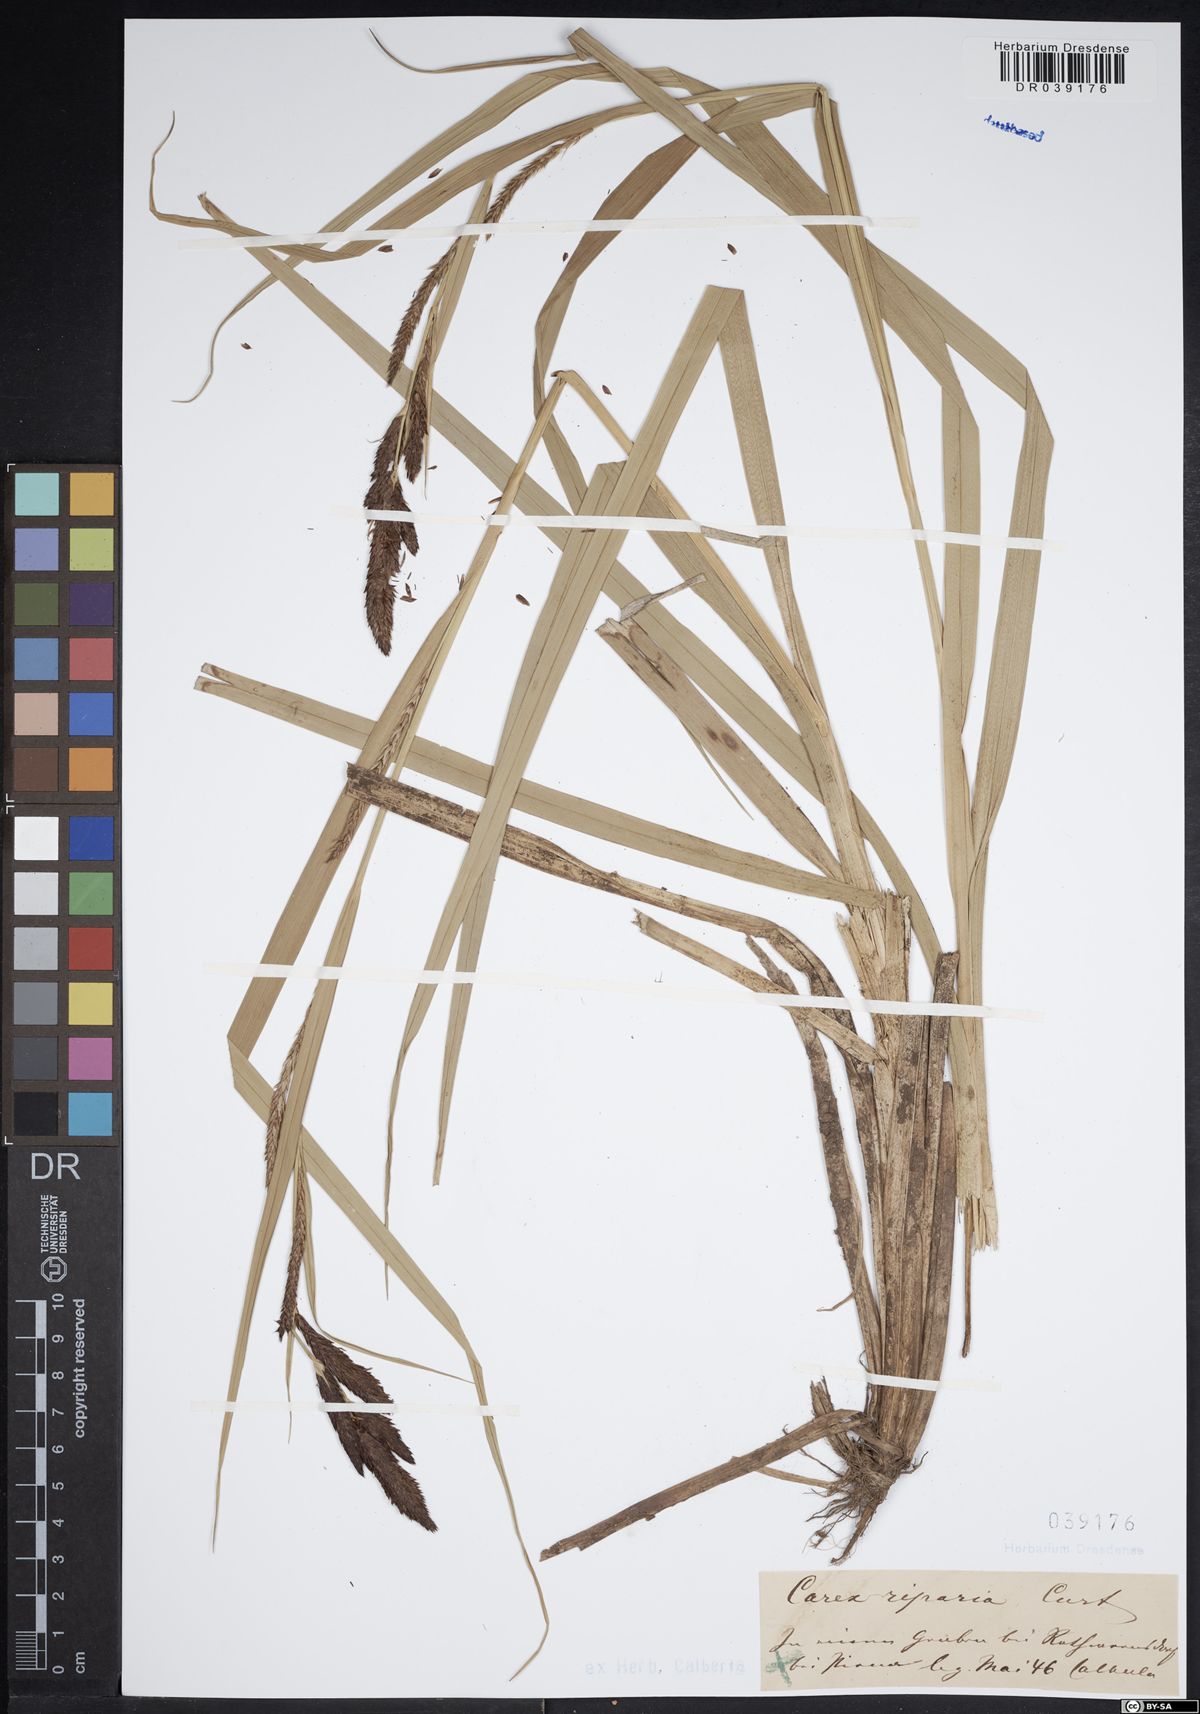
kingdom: Plantae
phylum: Tracheophyta
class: Liliopsida
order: Poales
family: Cyperaceae
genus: Carex
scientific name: Carex riparia
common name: Greater pond-sedge
